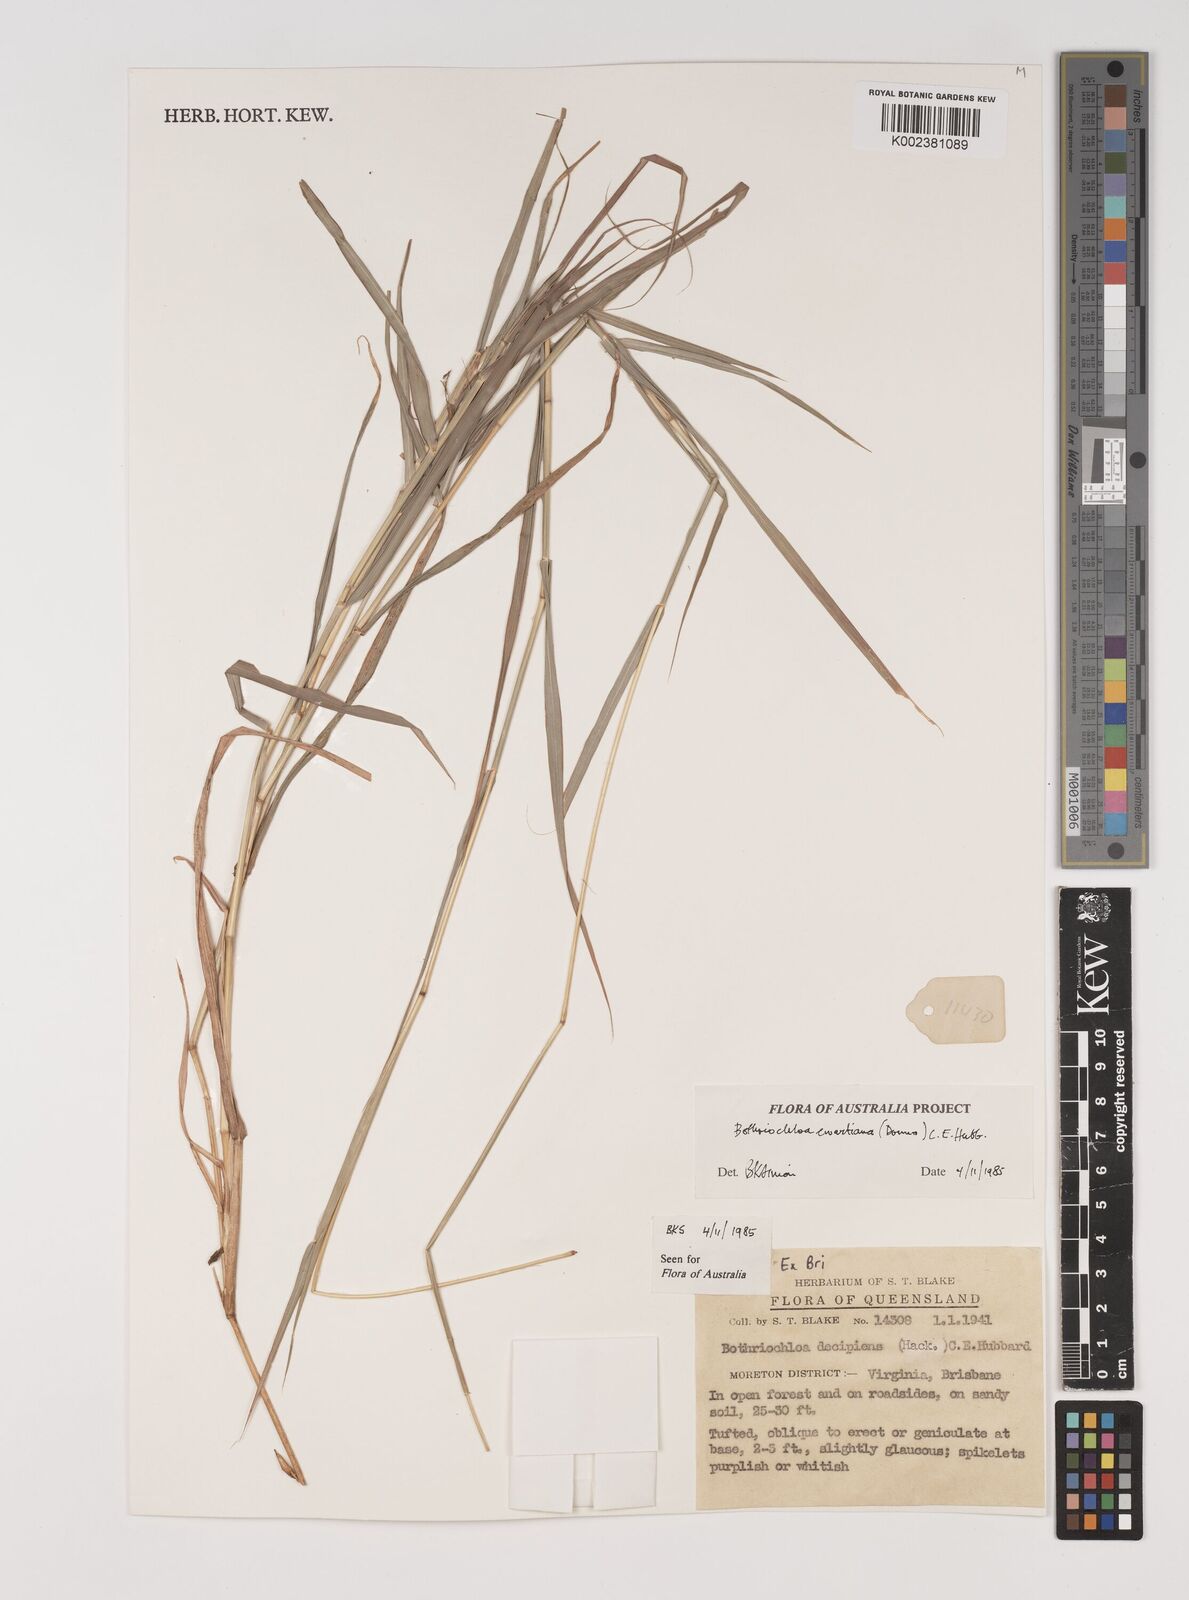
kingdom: Plantae
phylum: Tracheophyta
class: Liliopsida
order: Poales
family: Poaceae
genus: Bothriochloa
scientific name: Bothriochloa ewartiana
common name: Desert-bluegrass
